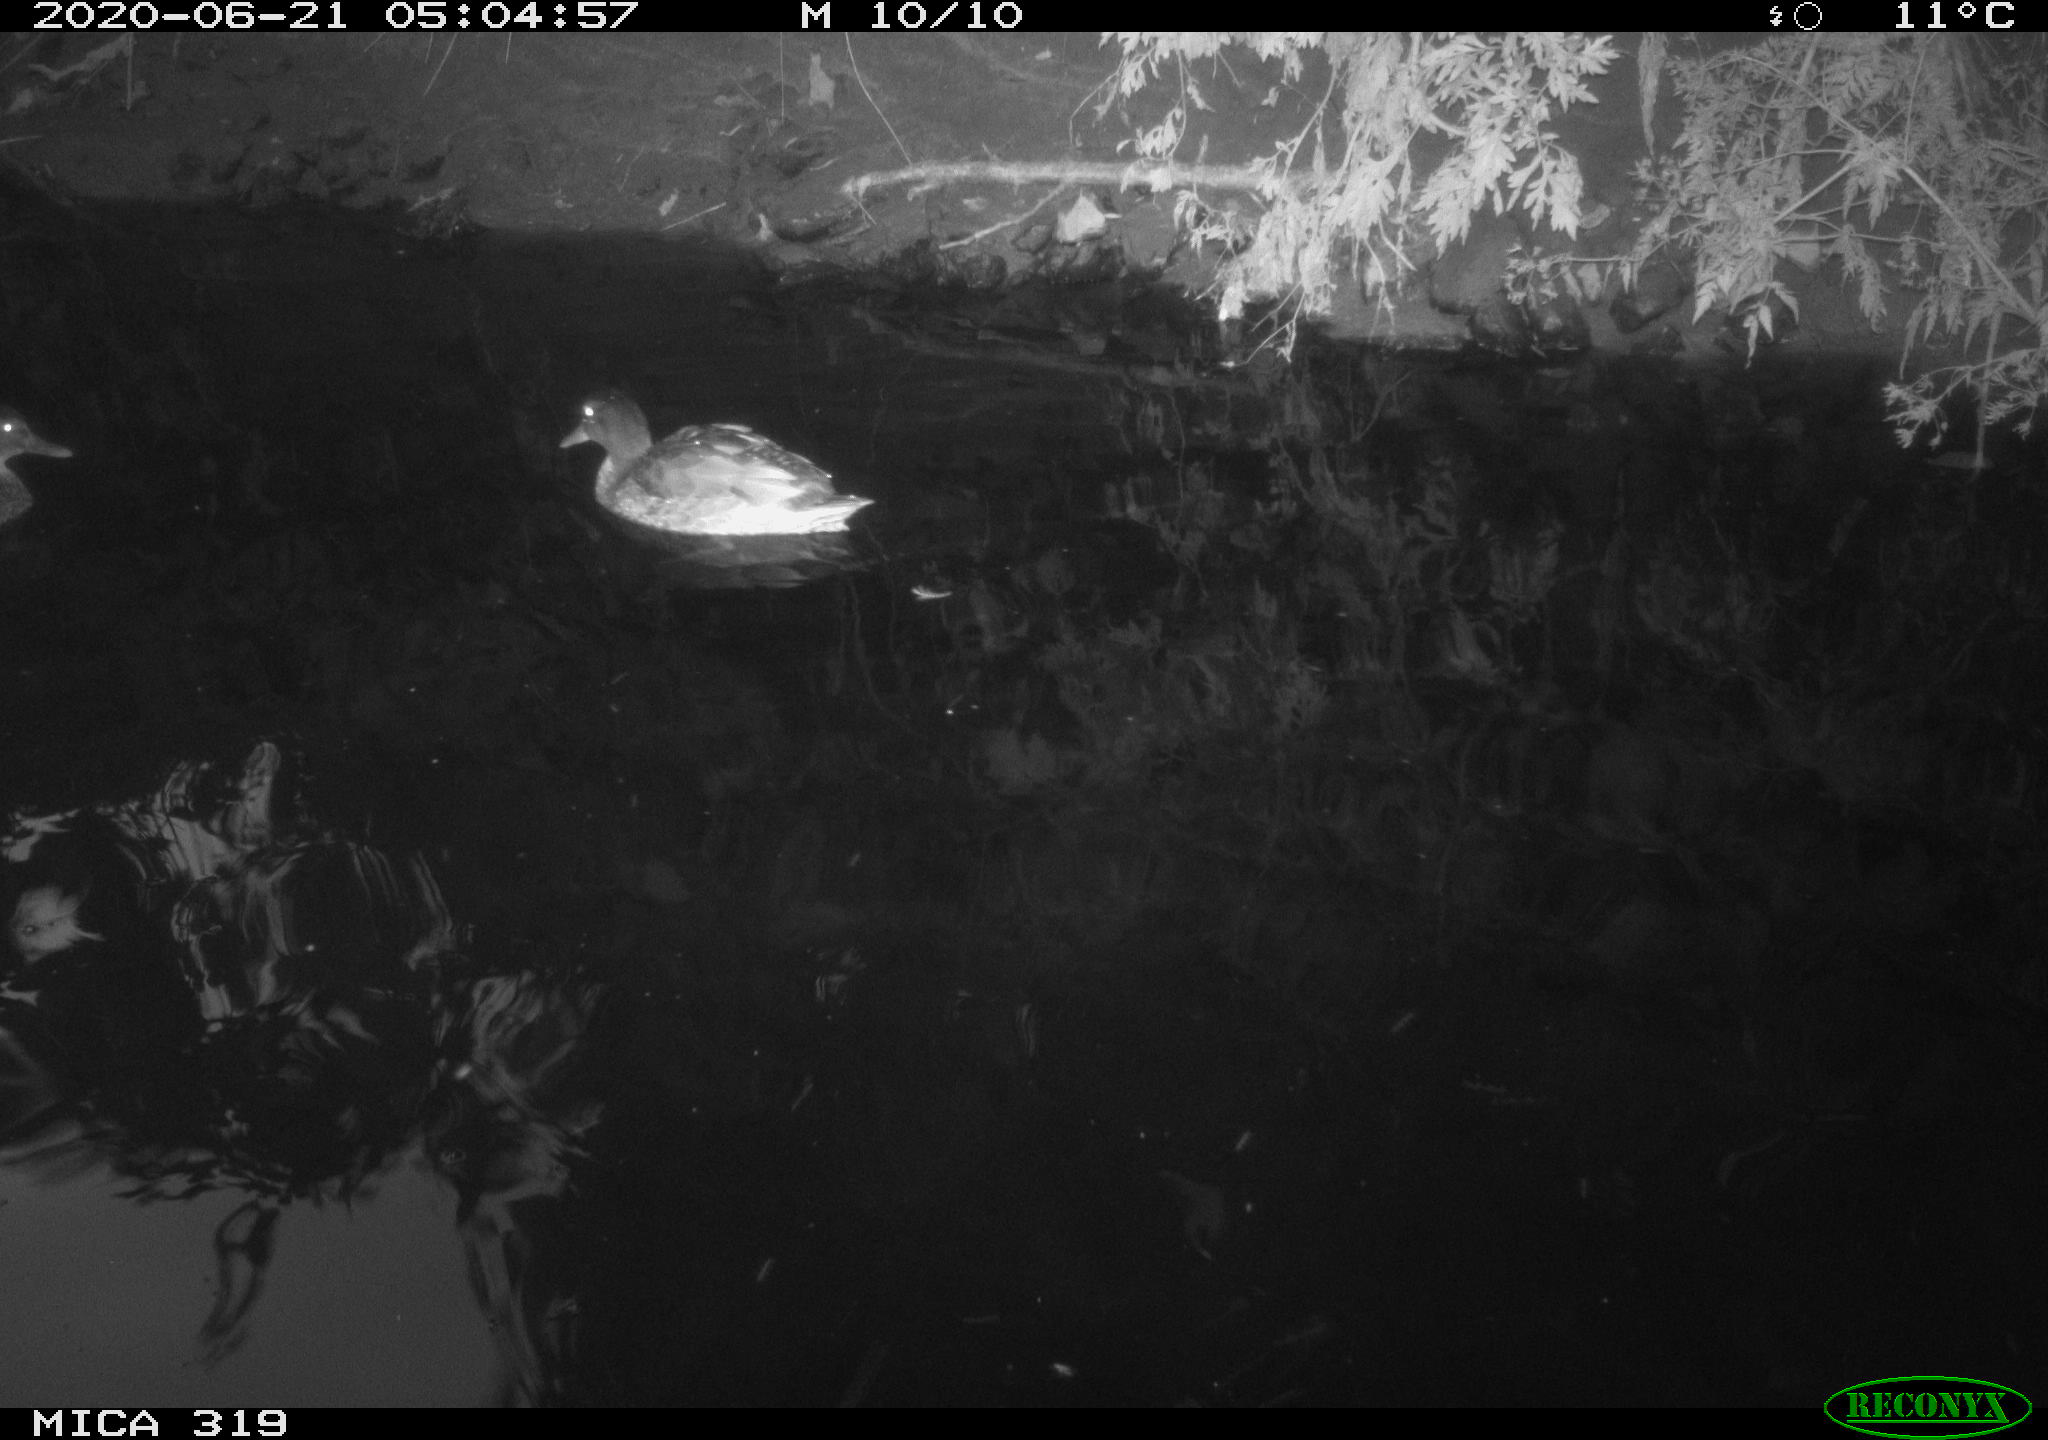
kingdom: Animalia
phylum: Chordata
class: Aves
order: Anseriformes
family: Anatidae
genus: Anas
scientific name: Anas platyrhynchos
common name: Mallard
